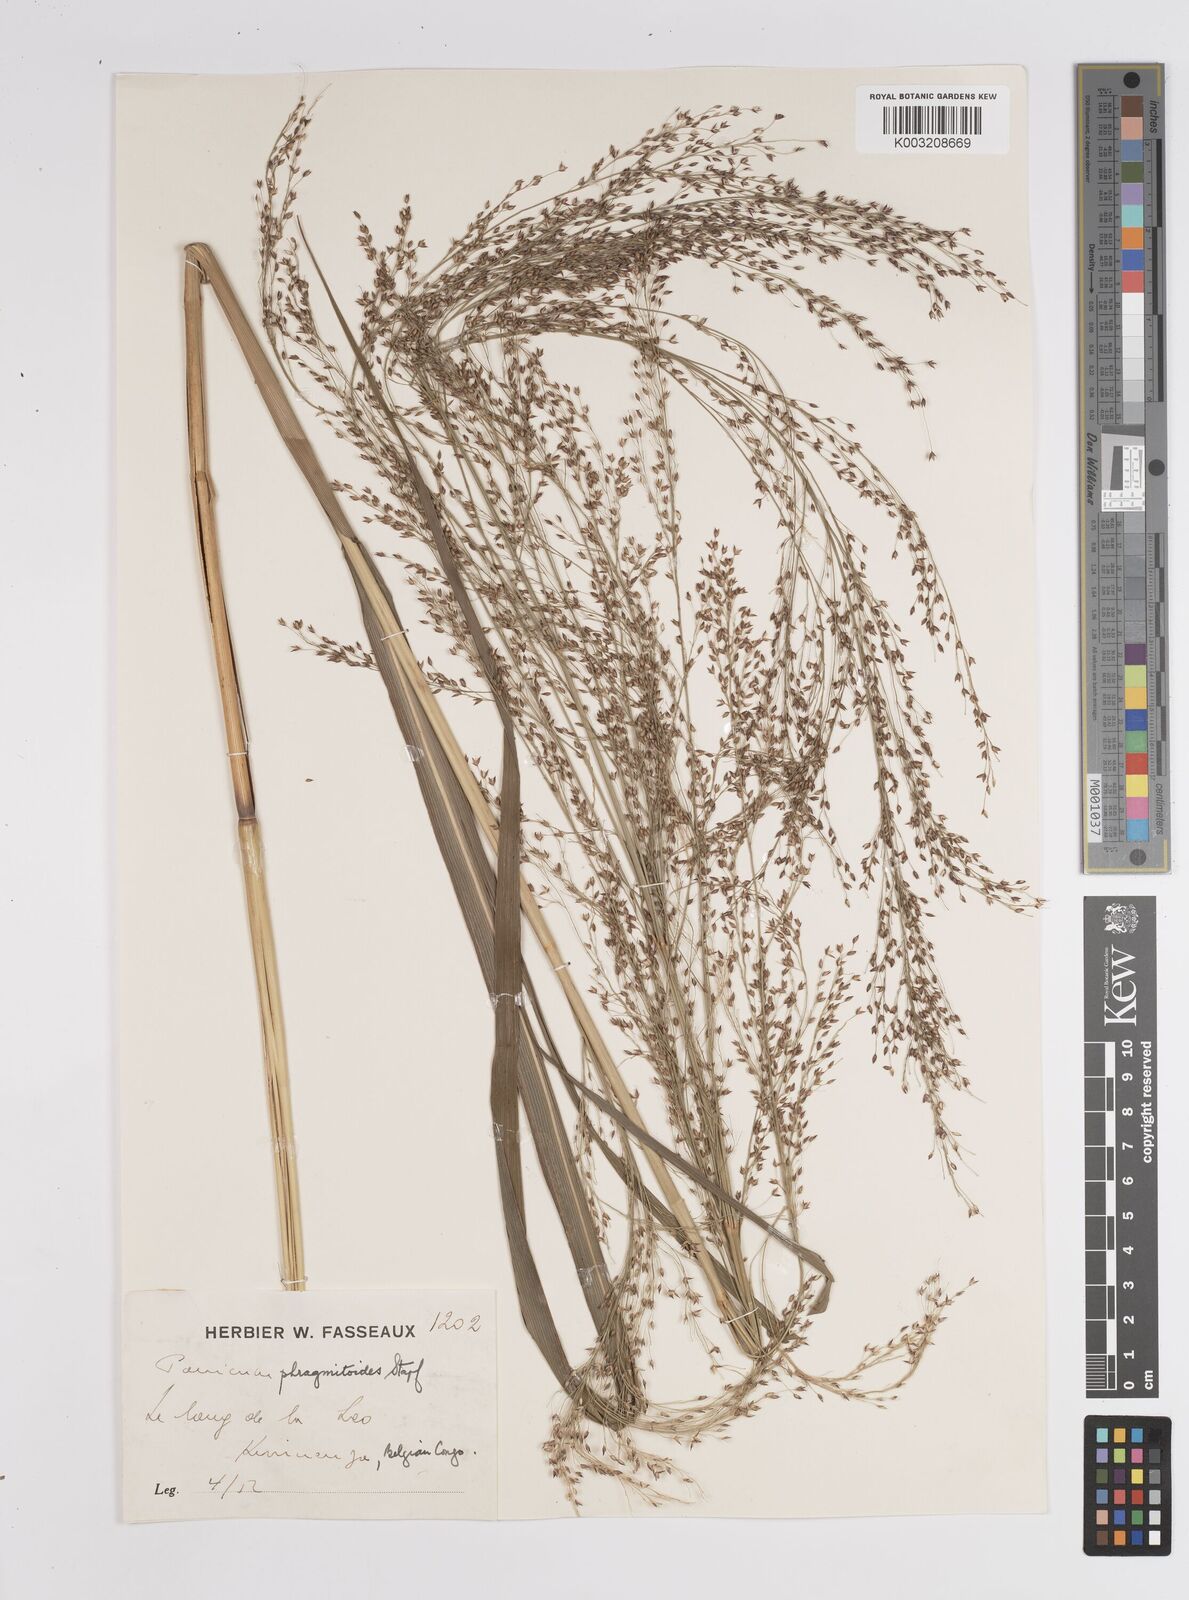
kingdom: Plantae
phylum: Tracheophyta
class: Liliopsida
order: Poales
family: Poaceae
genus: Panicum
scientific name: Panicum phragmitoides
